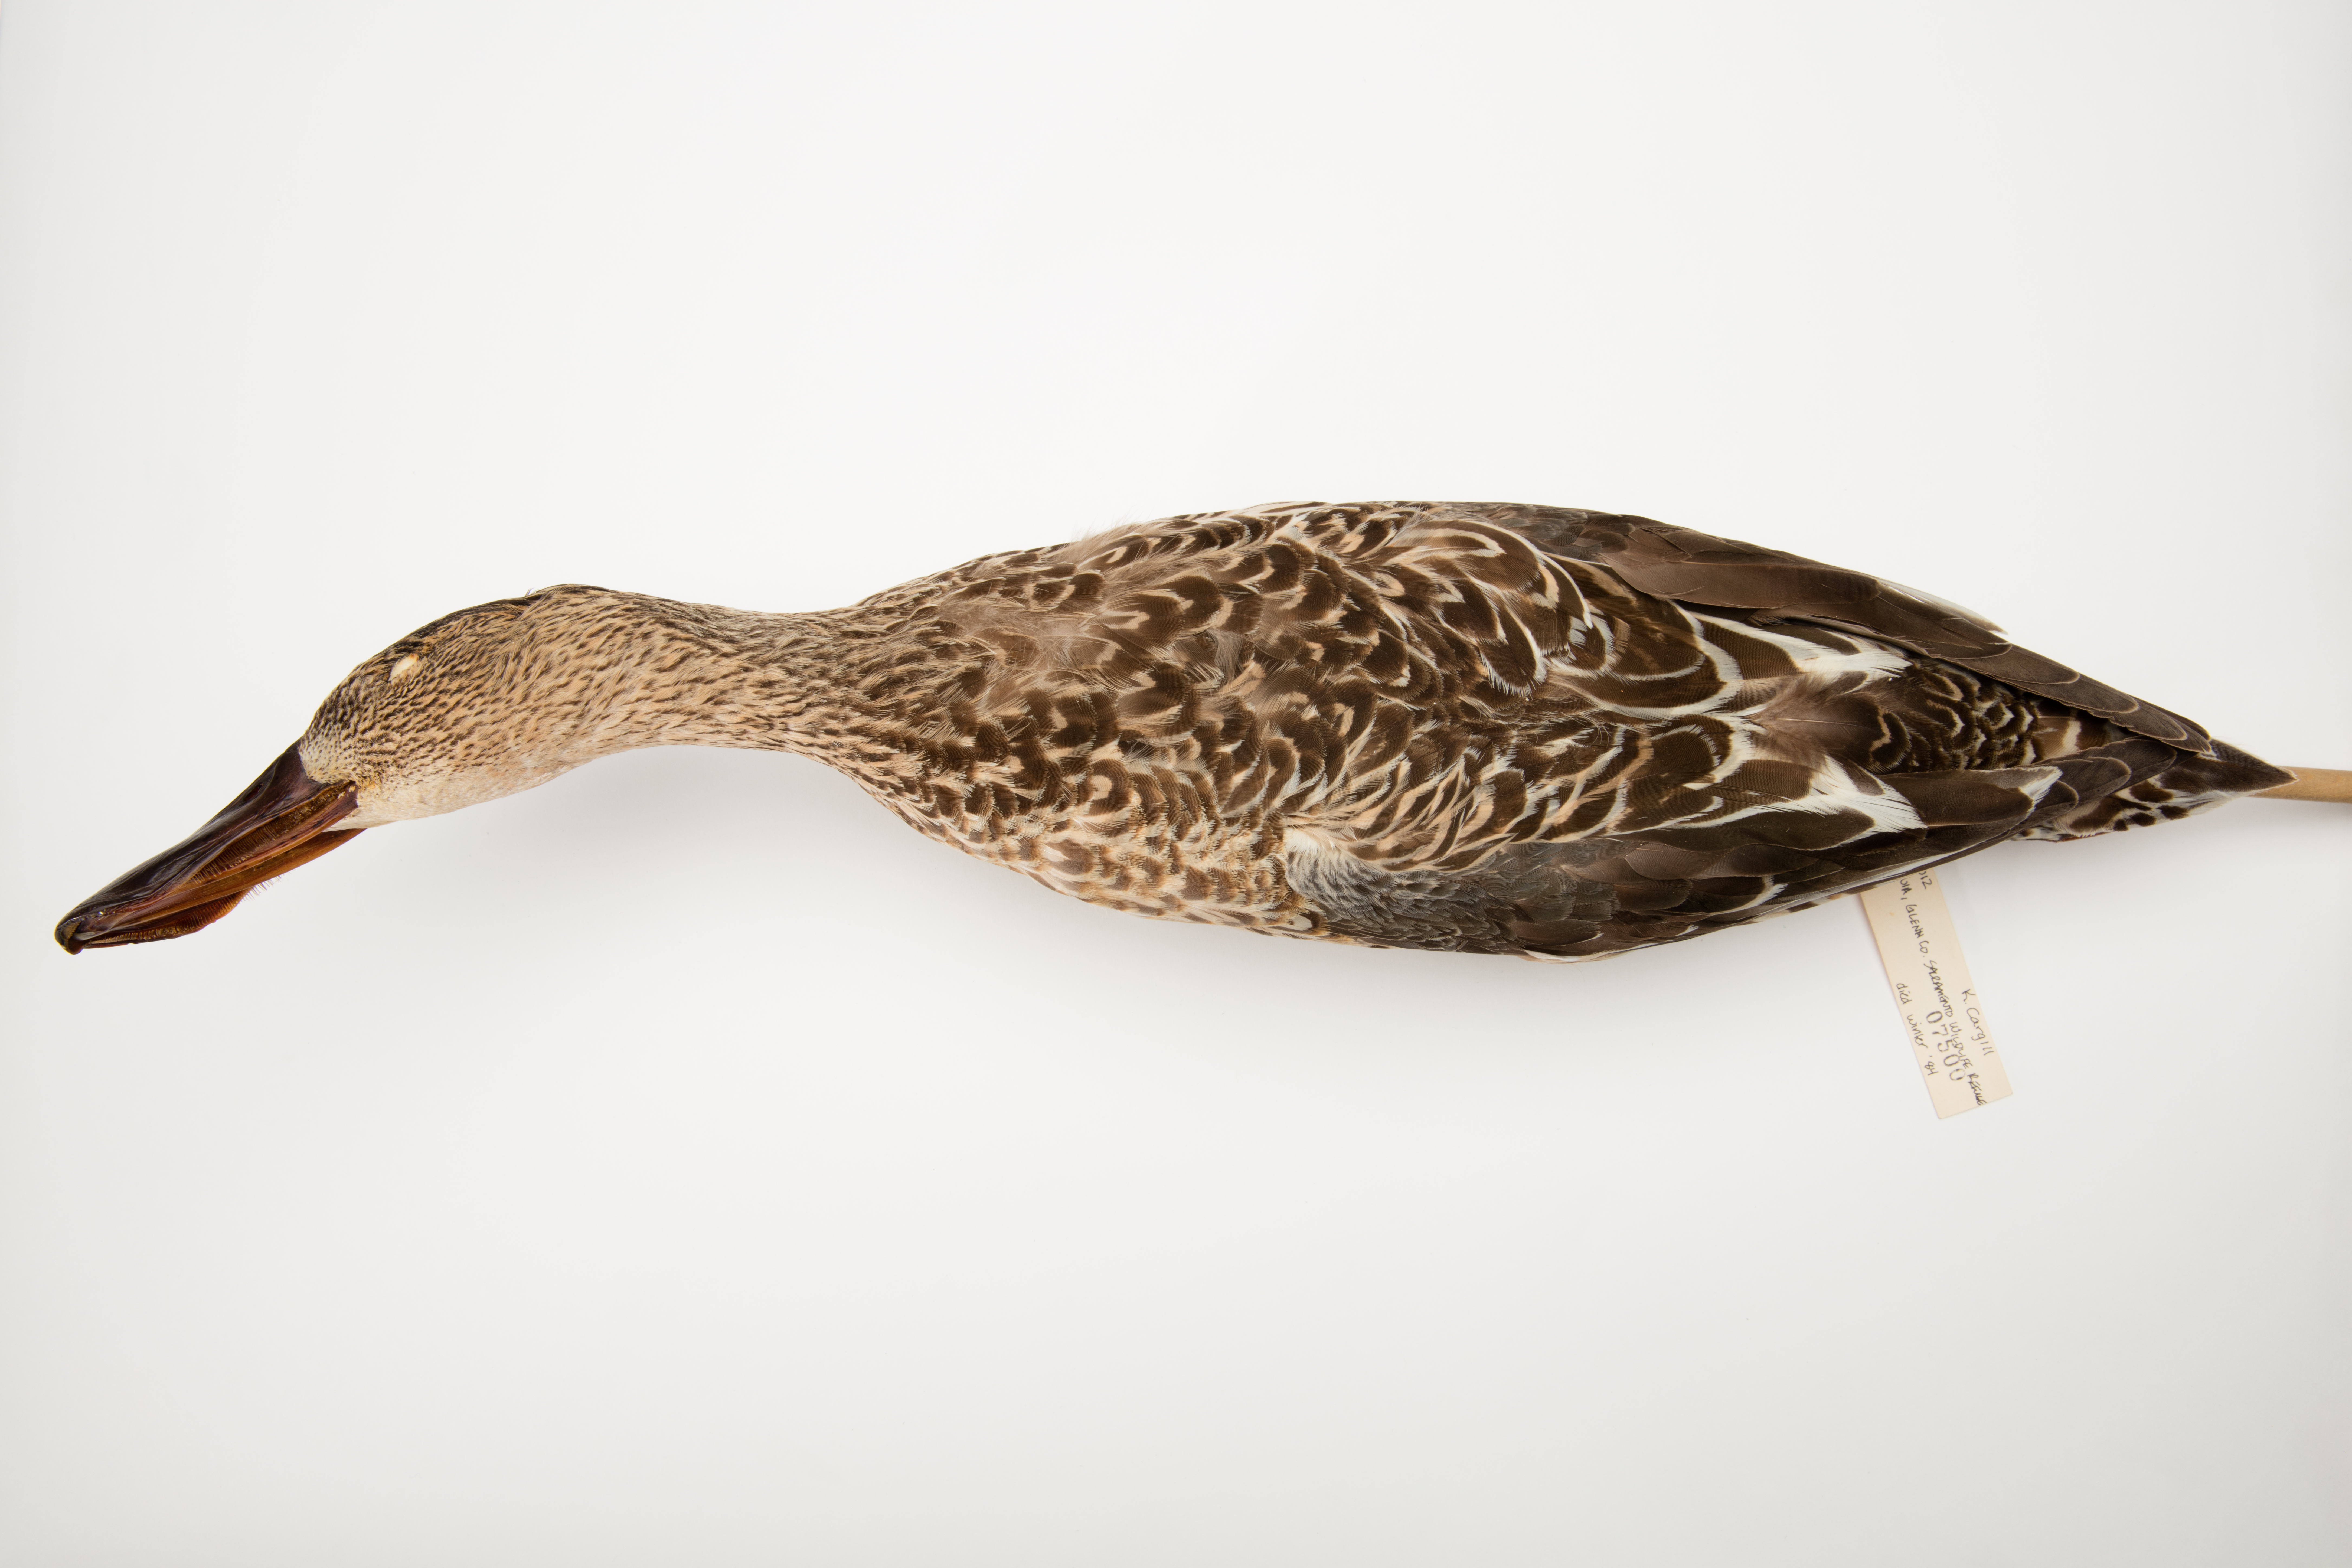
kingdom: Animalia
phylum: Chordata
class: Aves
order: Anseriformes
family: Anatidae
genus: Spatula
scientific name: Spatula clypeata
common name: Northern shoveler
